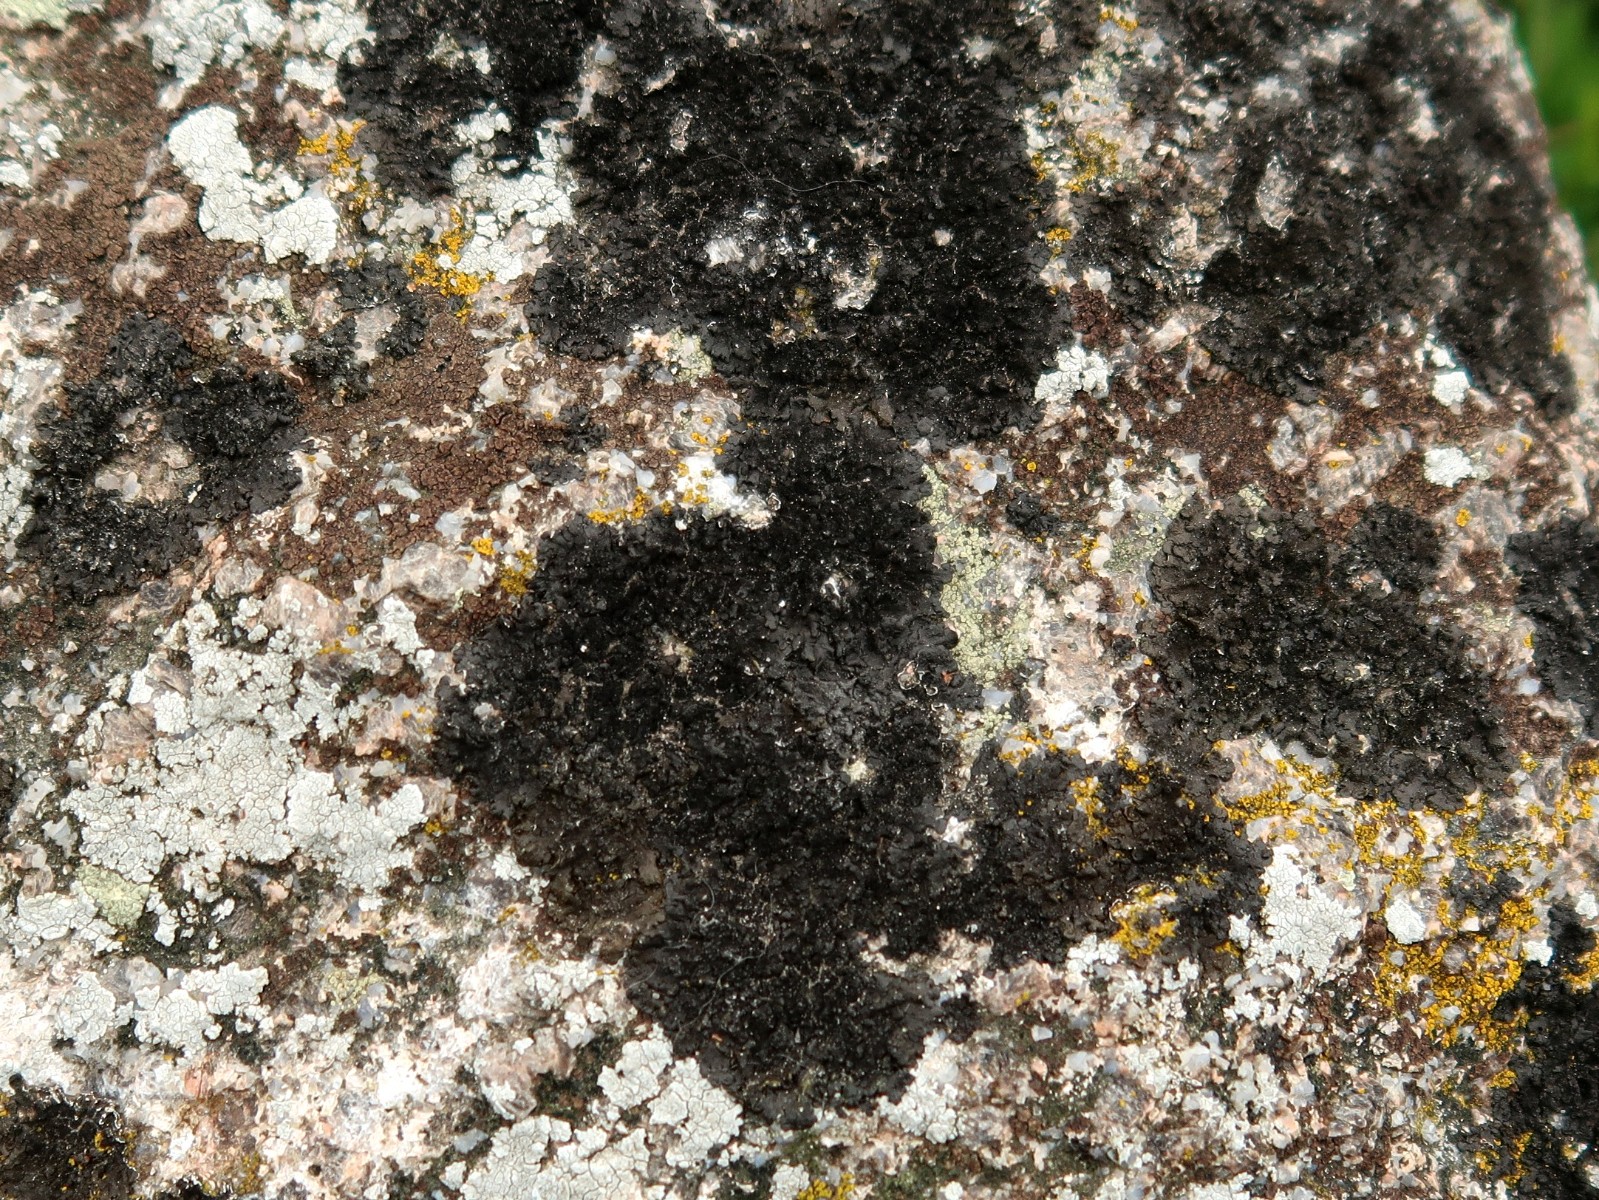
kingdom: Fungi
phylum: Ascomycota
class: Lecanoromycetes
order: Lecanorales
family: Parmeliaceae
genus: Melanelixia
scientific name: Melanelixia fuliginosa
